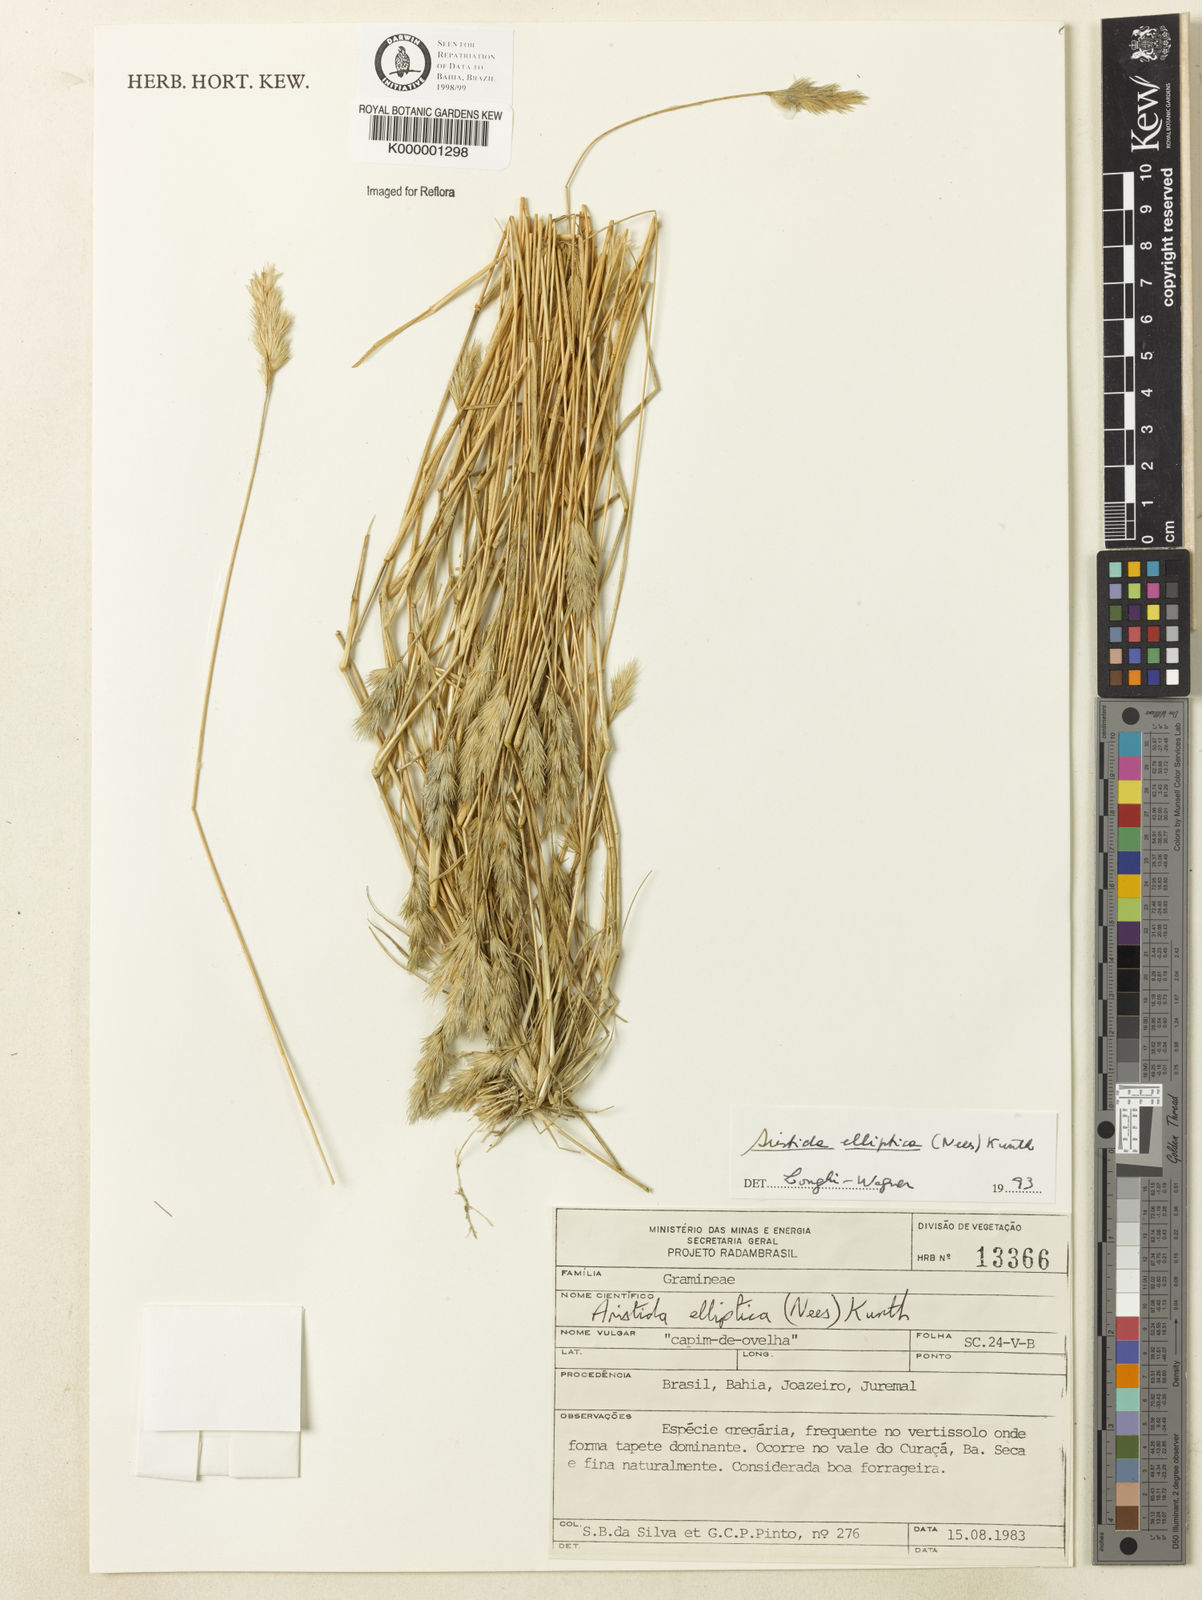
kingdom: Plantae
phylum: Tracheophyta
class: Liliopsida
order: Poales
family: Poaceae
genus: Aristida
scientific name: Aristida elliptica
